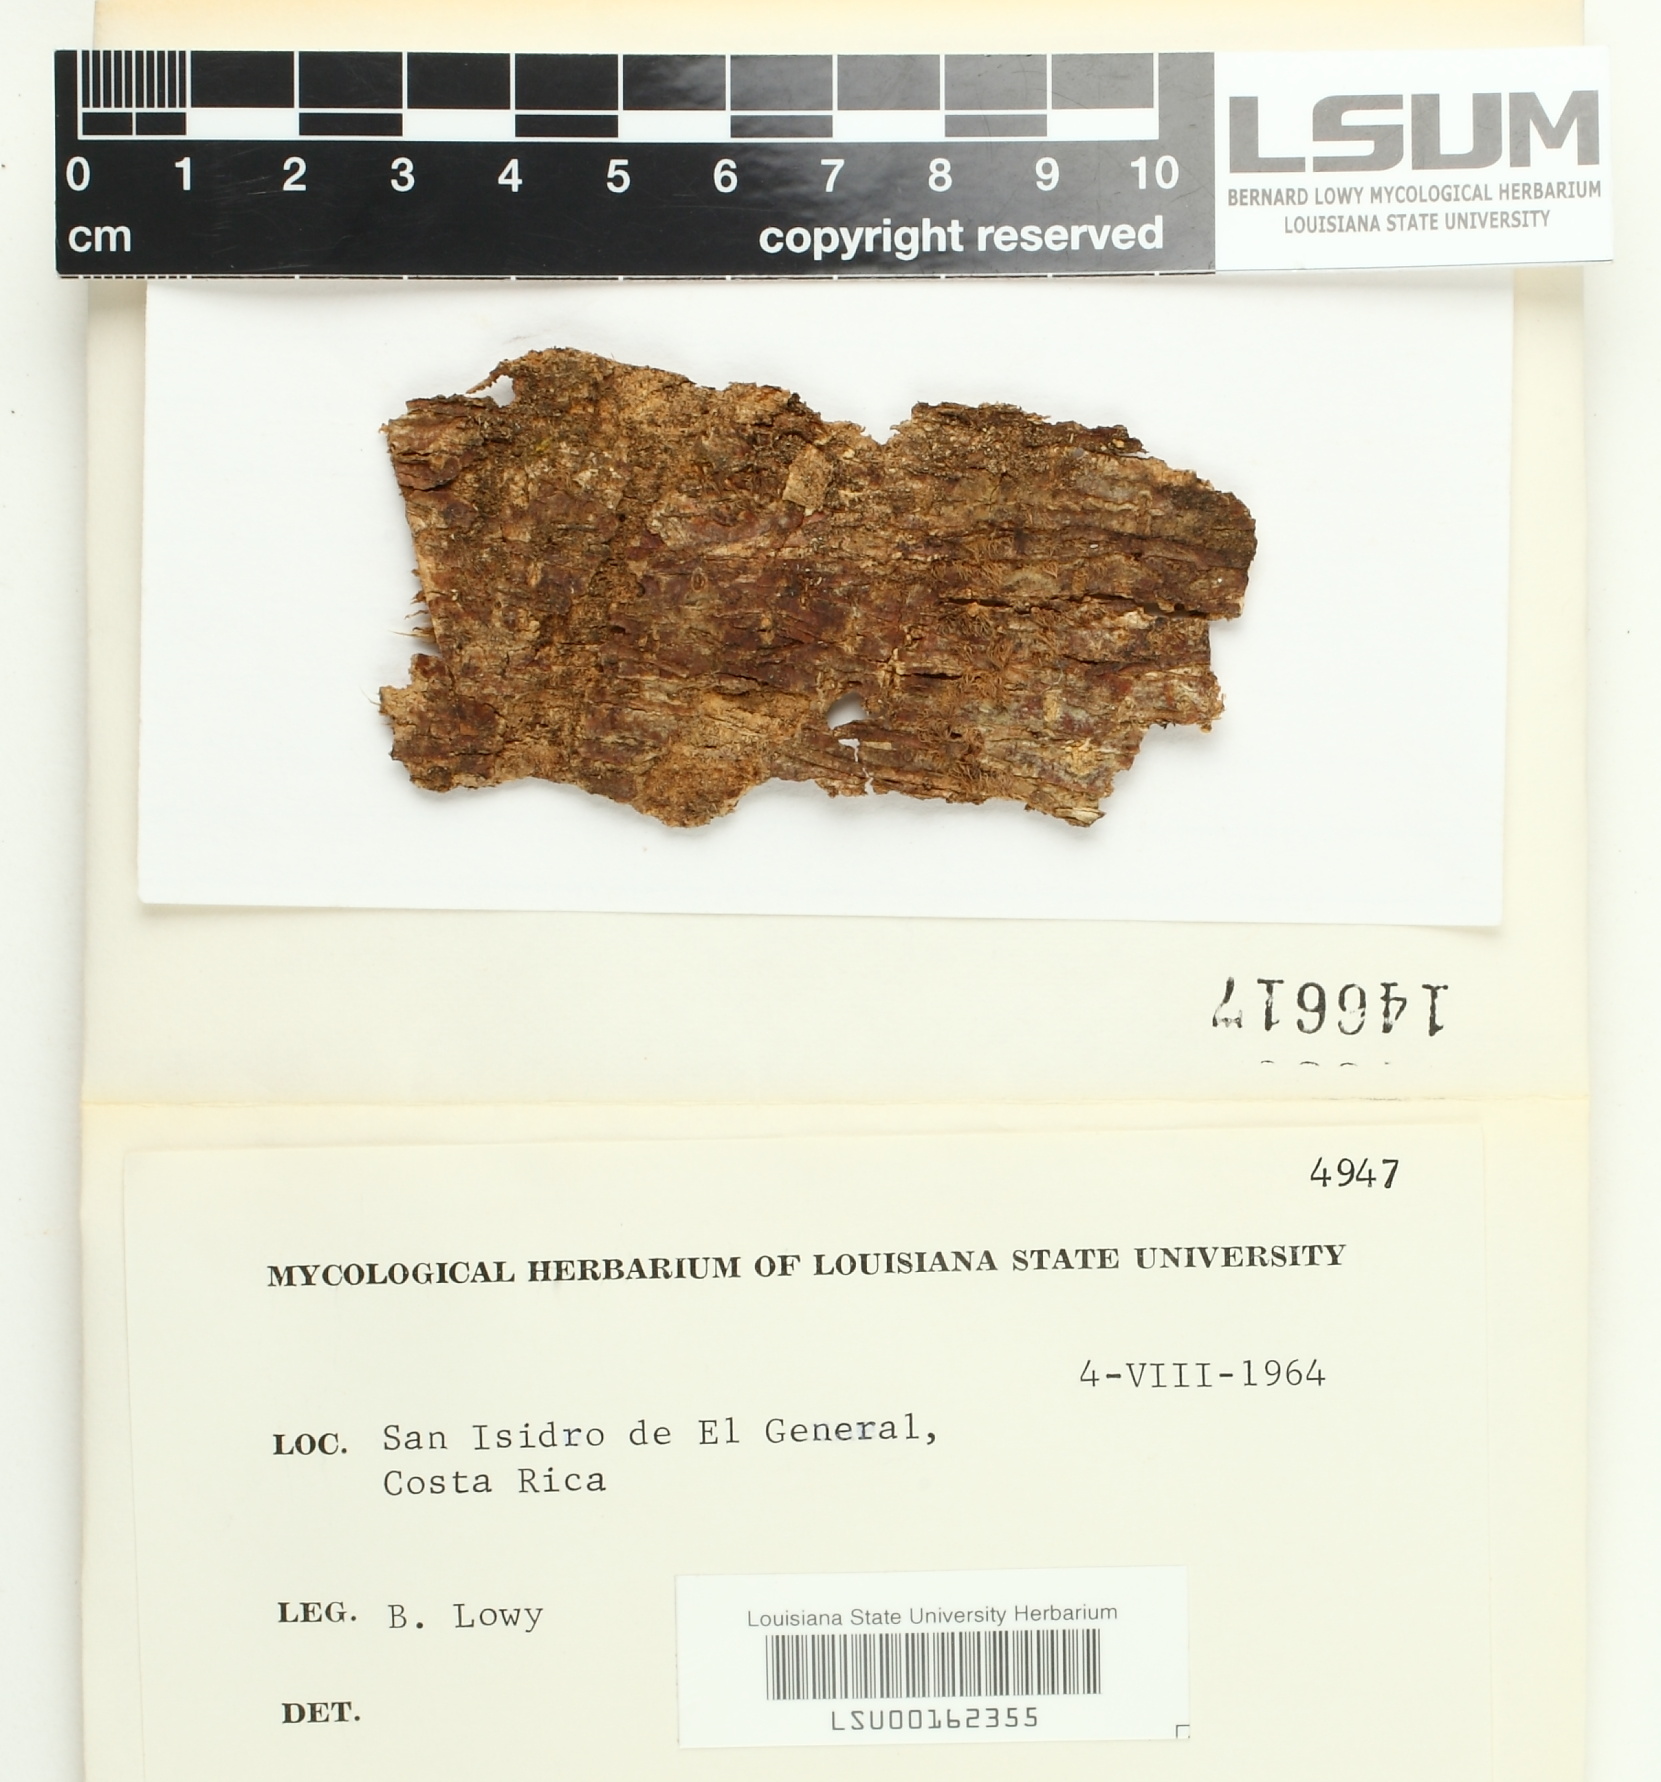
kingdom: Fungi
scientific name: Fungi
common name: Fungi
